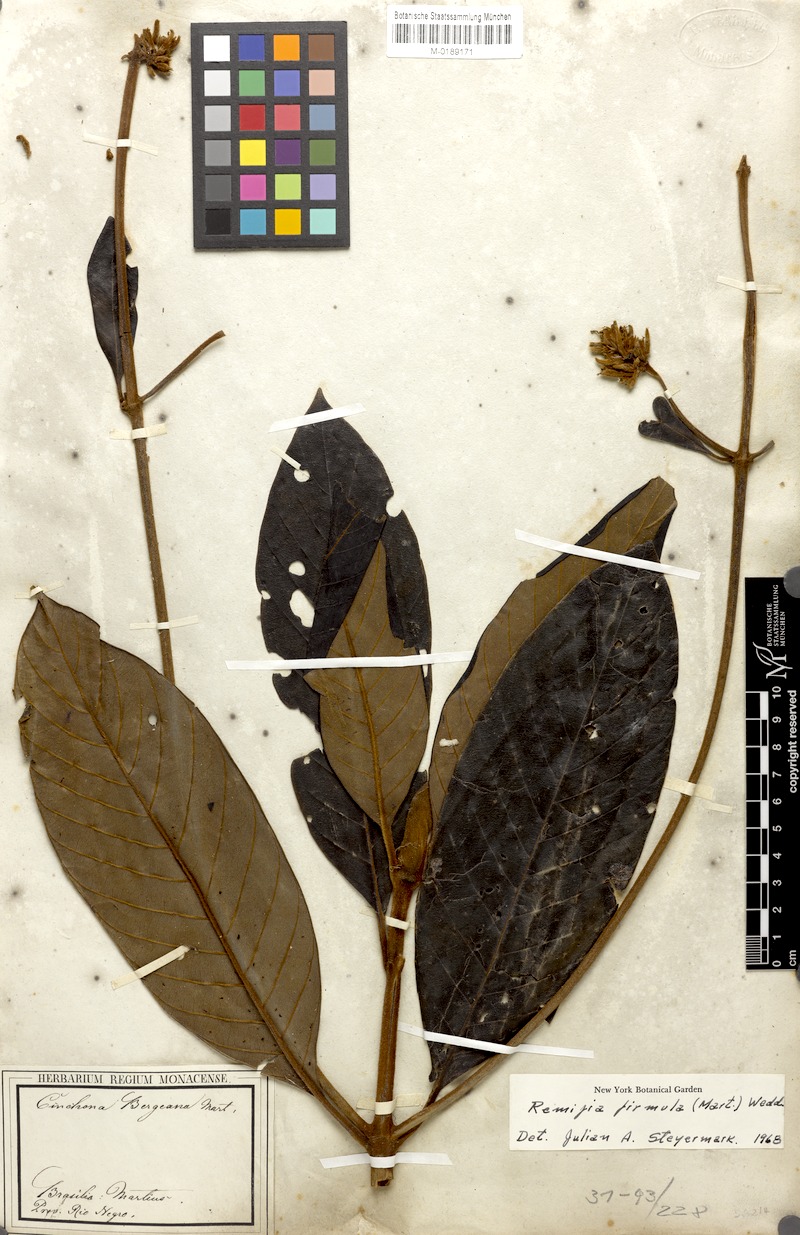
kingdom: Plantae
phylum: Tracheophyta
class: Magnoliopsida
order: Gentianales
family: Rubiaceae
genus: Remijia
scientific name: Remijia firmula
